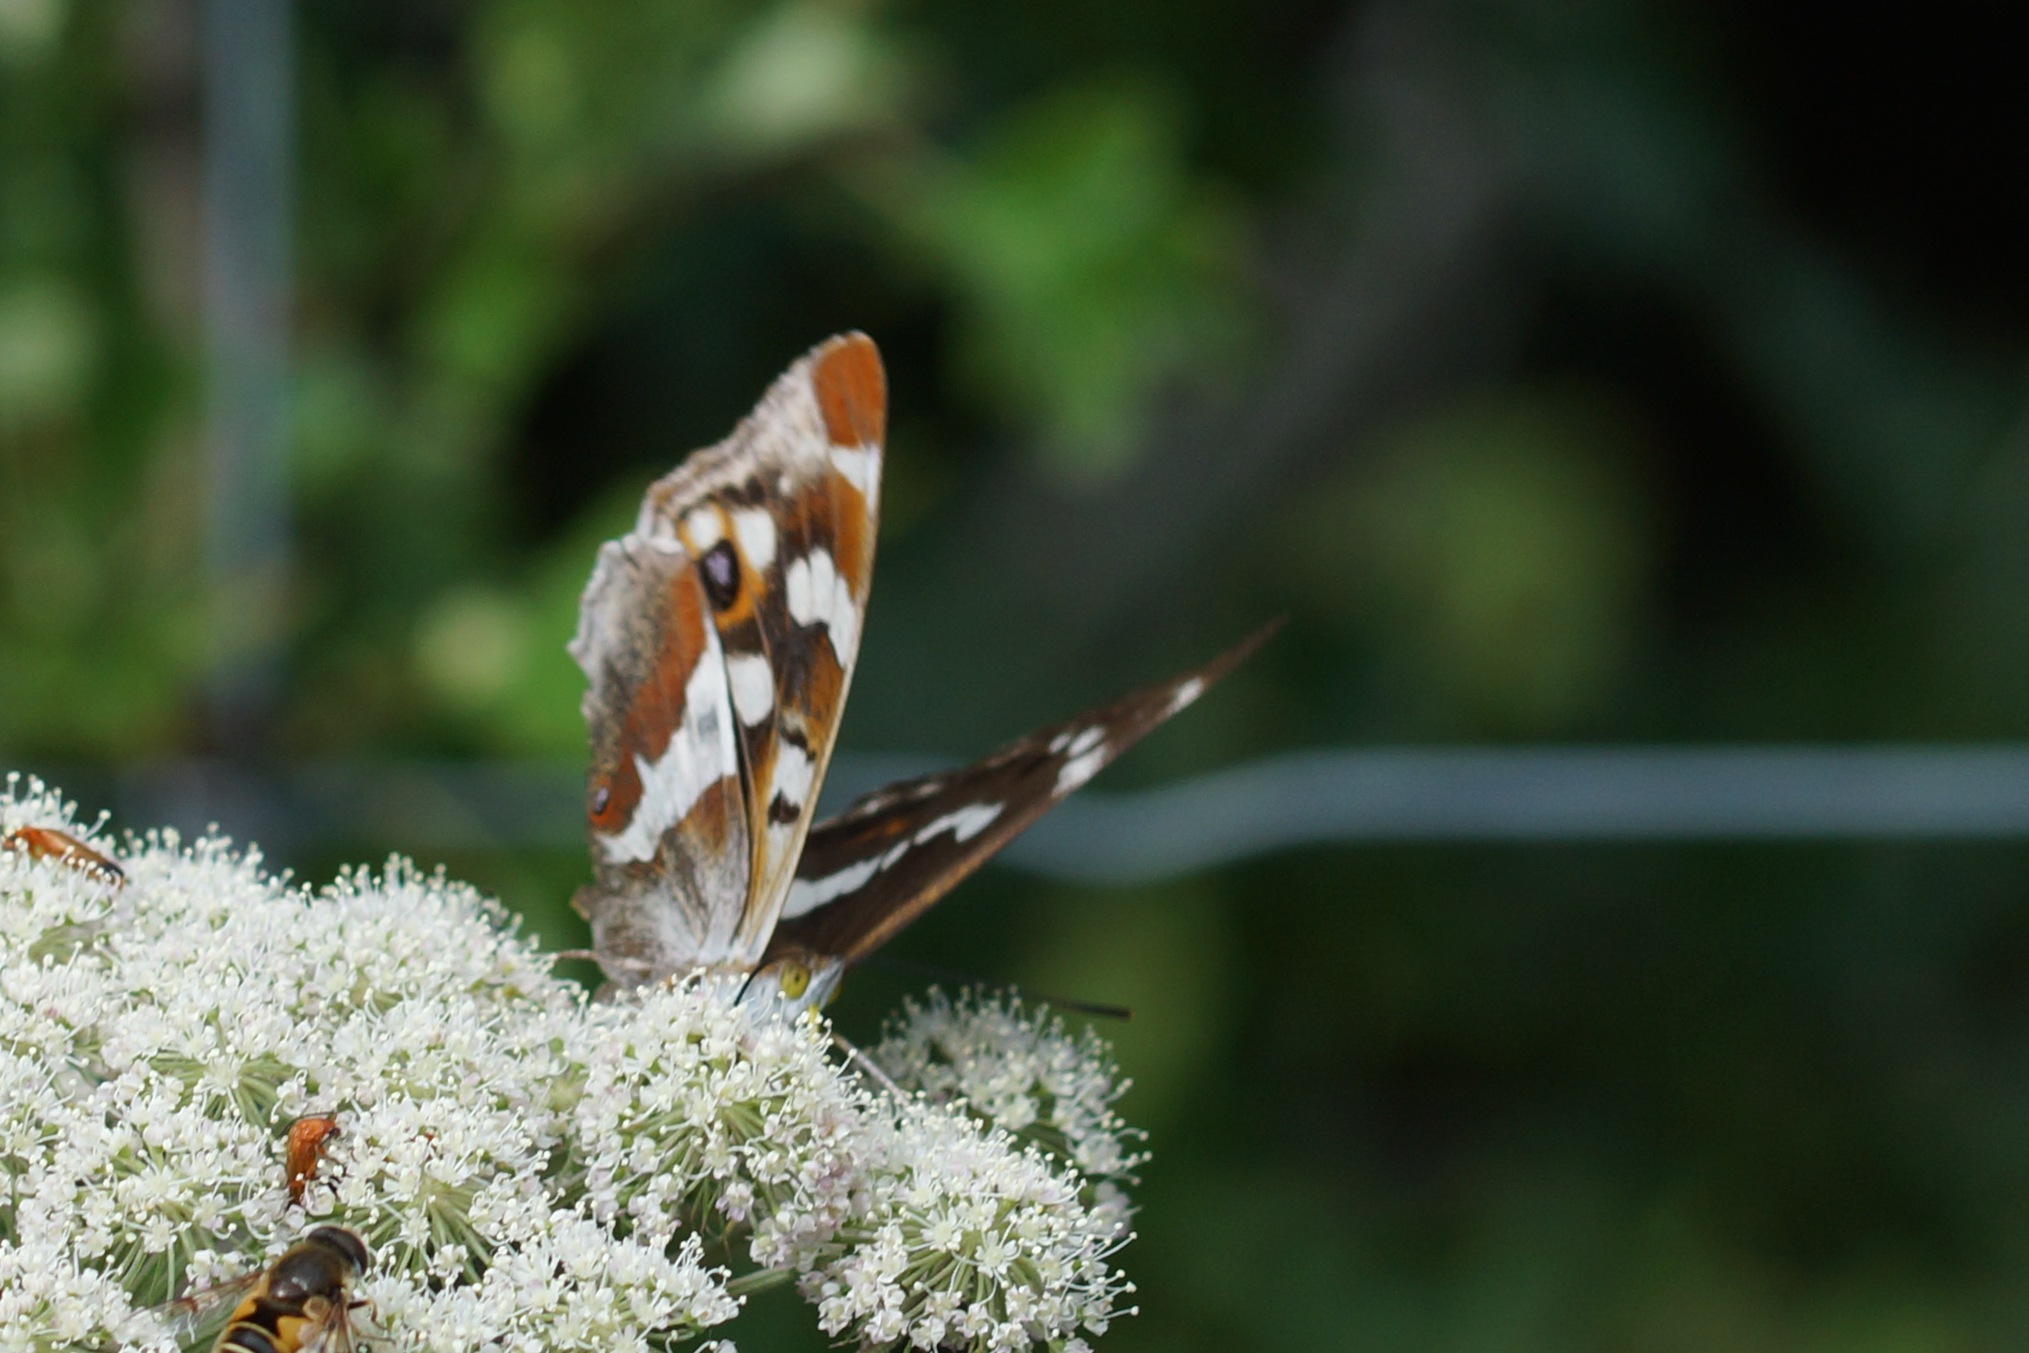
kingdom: Animalia
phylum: Arthropoda
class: Insecta
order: Lepidoptera
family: Nymphalidae
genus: Apatura
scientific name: Apatura iris
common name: Iris
